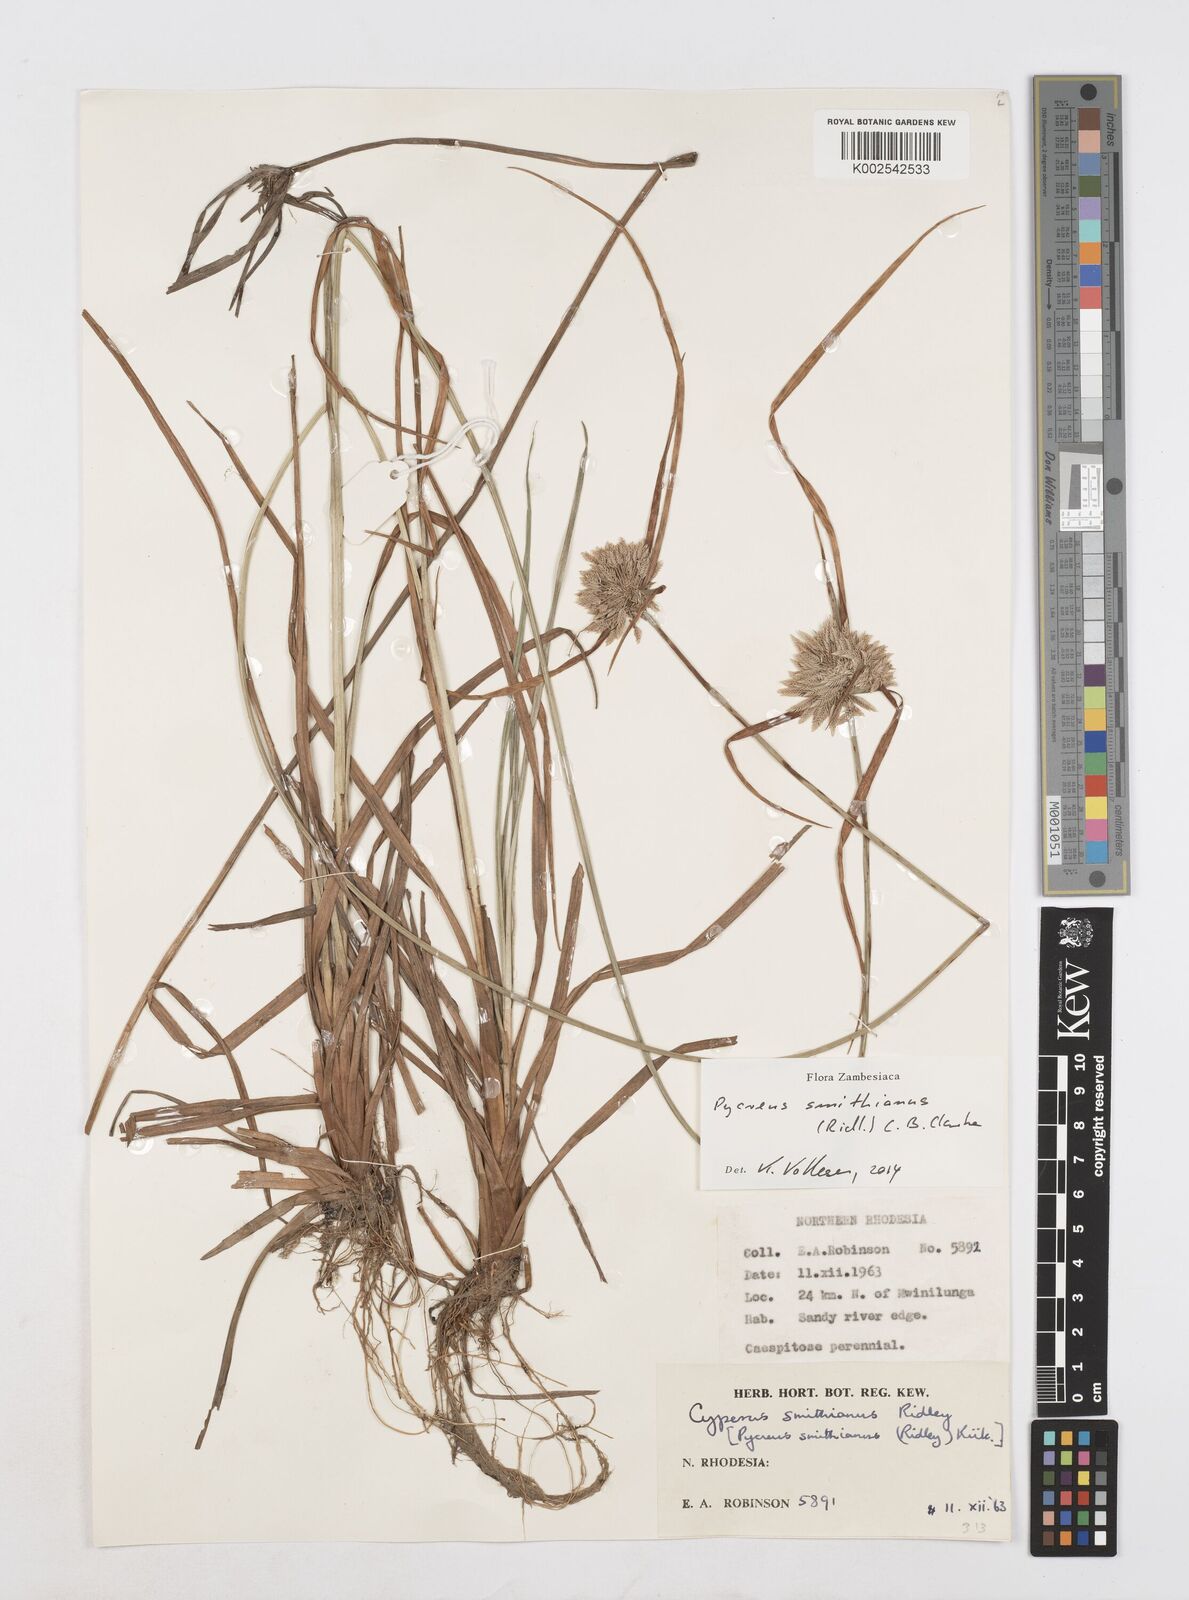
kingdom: Plantae
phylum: Tracheophyta
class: Liliopsida
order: Poales
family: Cyperaceae
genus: Cyperus
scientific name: Cyperus smithianus
